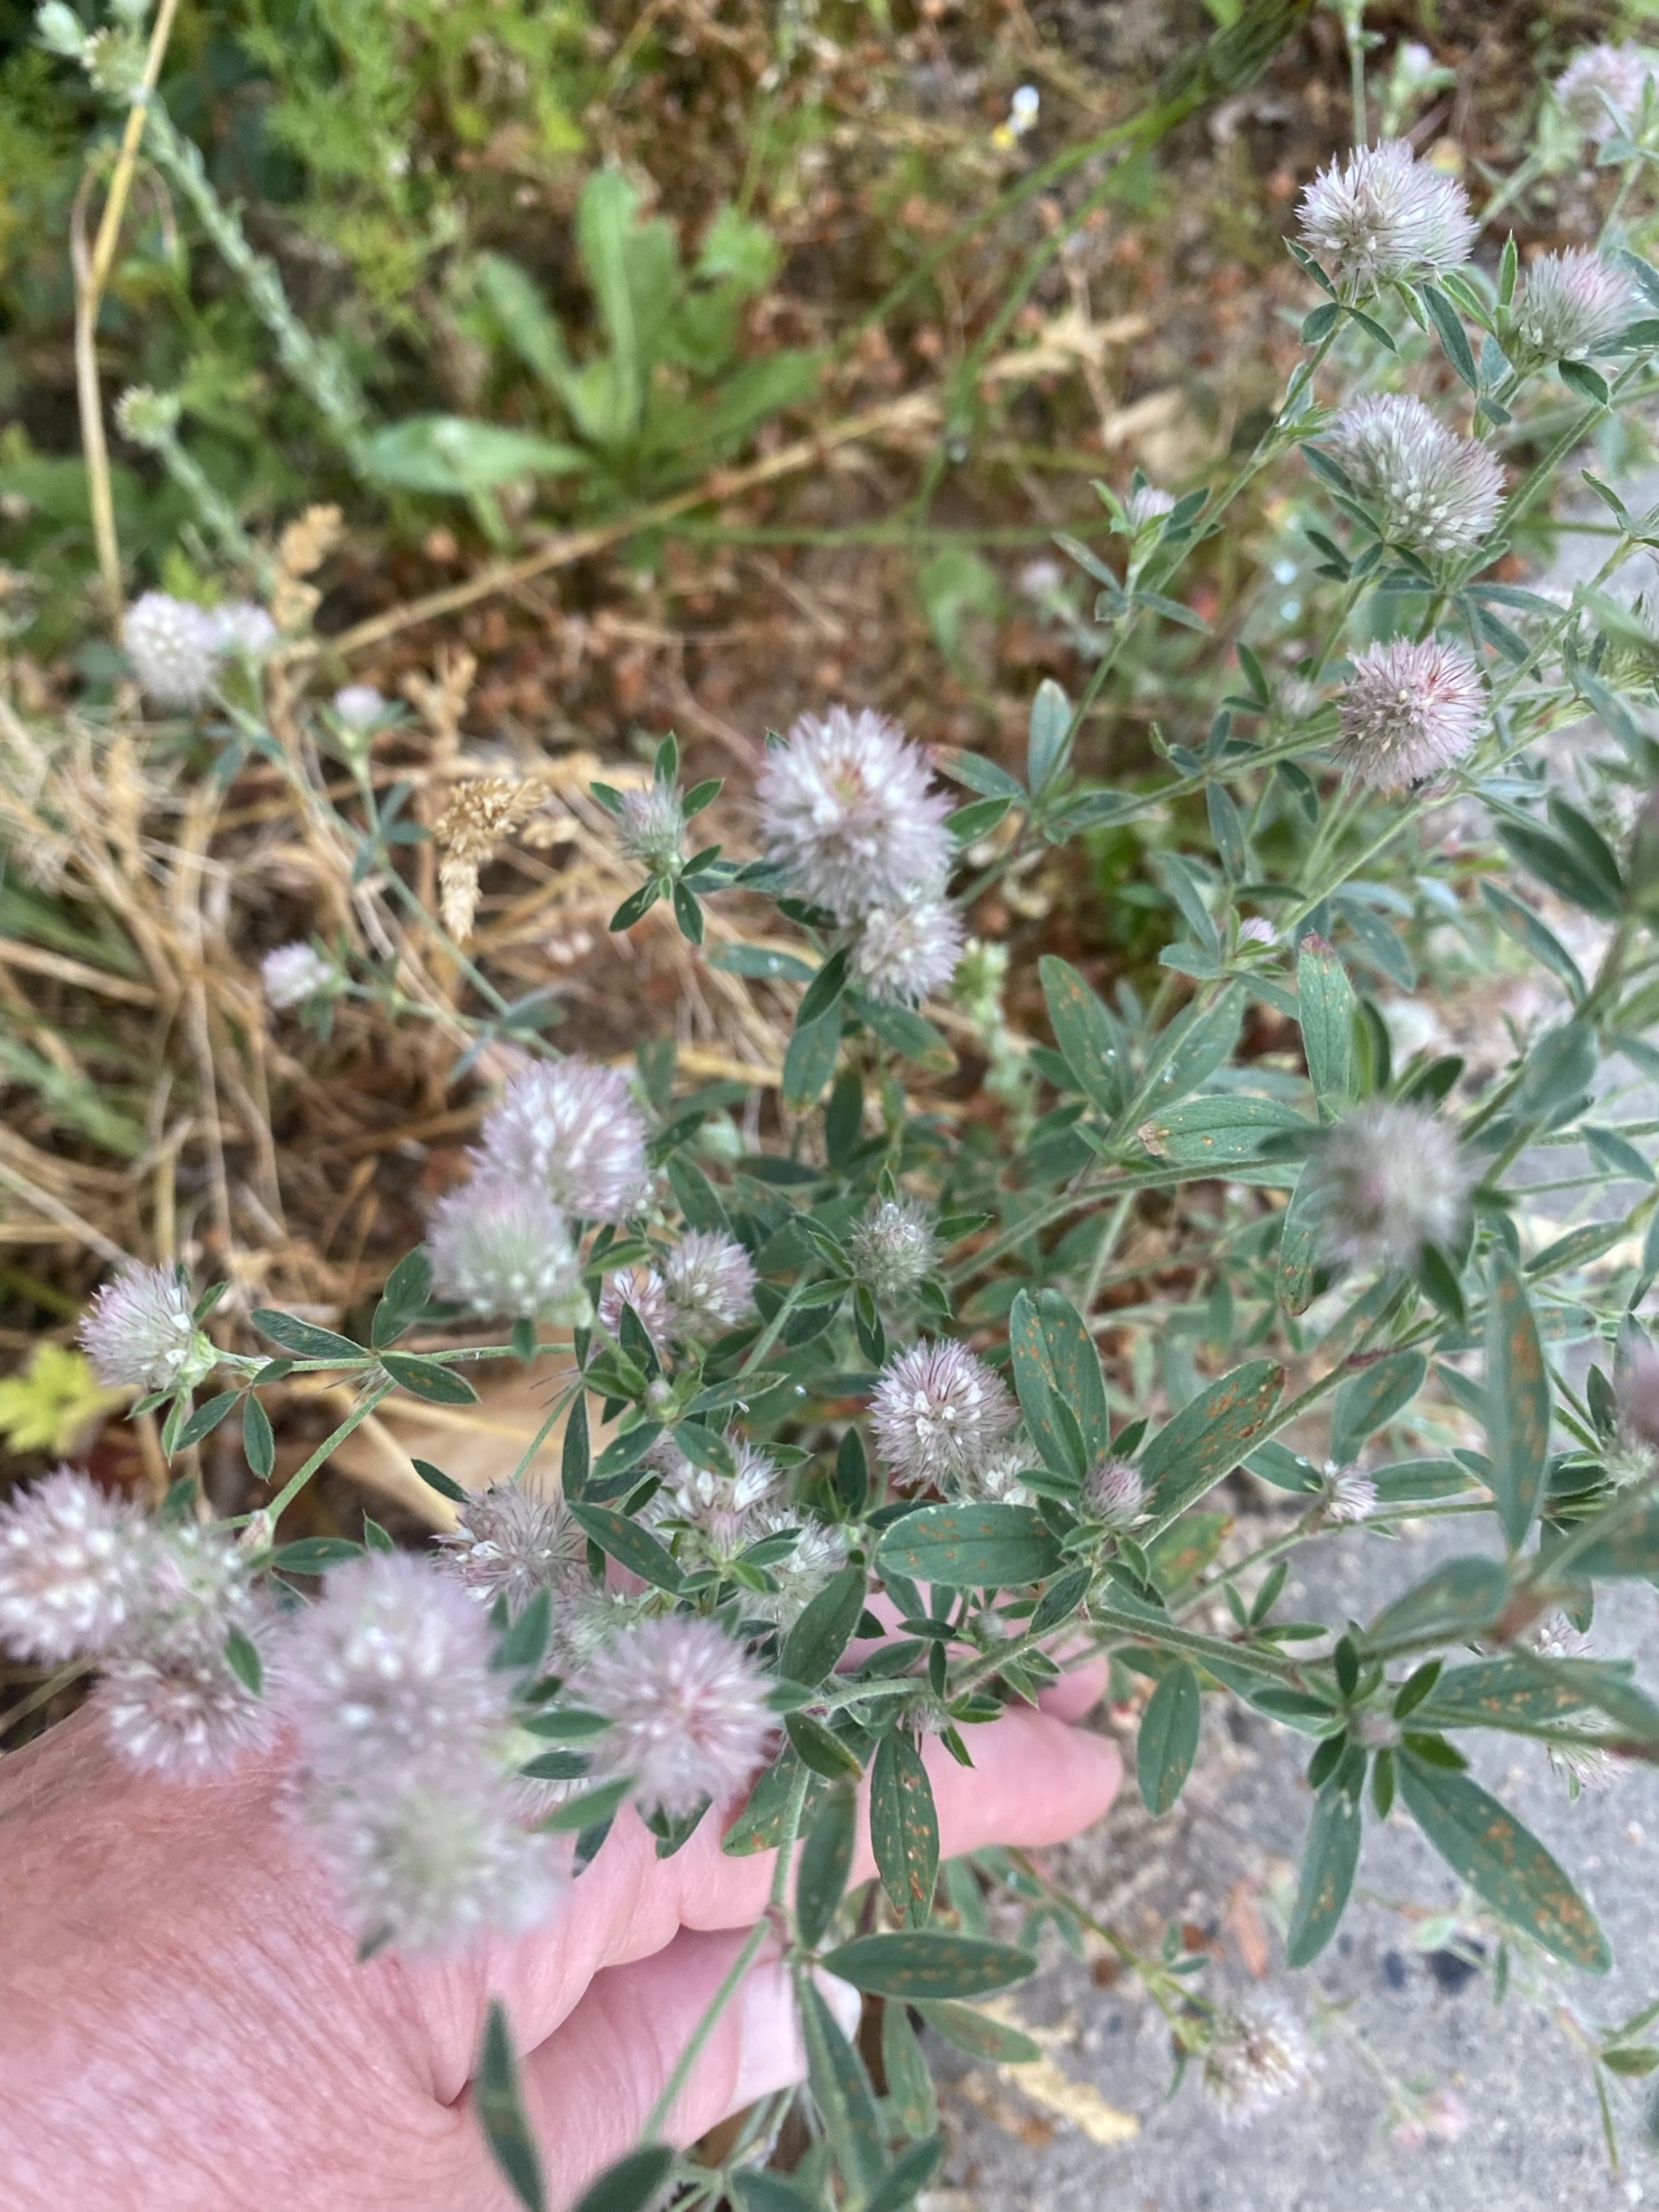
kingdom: Plantae
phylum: Tracheophyta
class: Magnoliopsida
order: Fabales
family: Fabaceae
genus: Trifolium
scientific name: Trifolium arvense
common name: Hare-kløver
